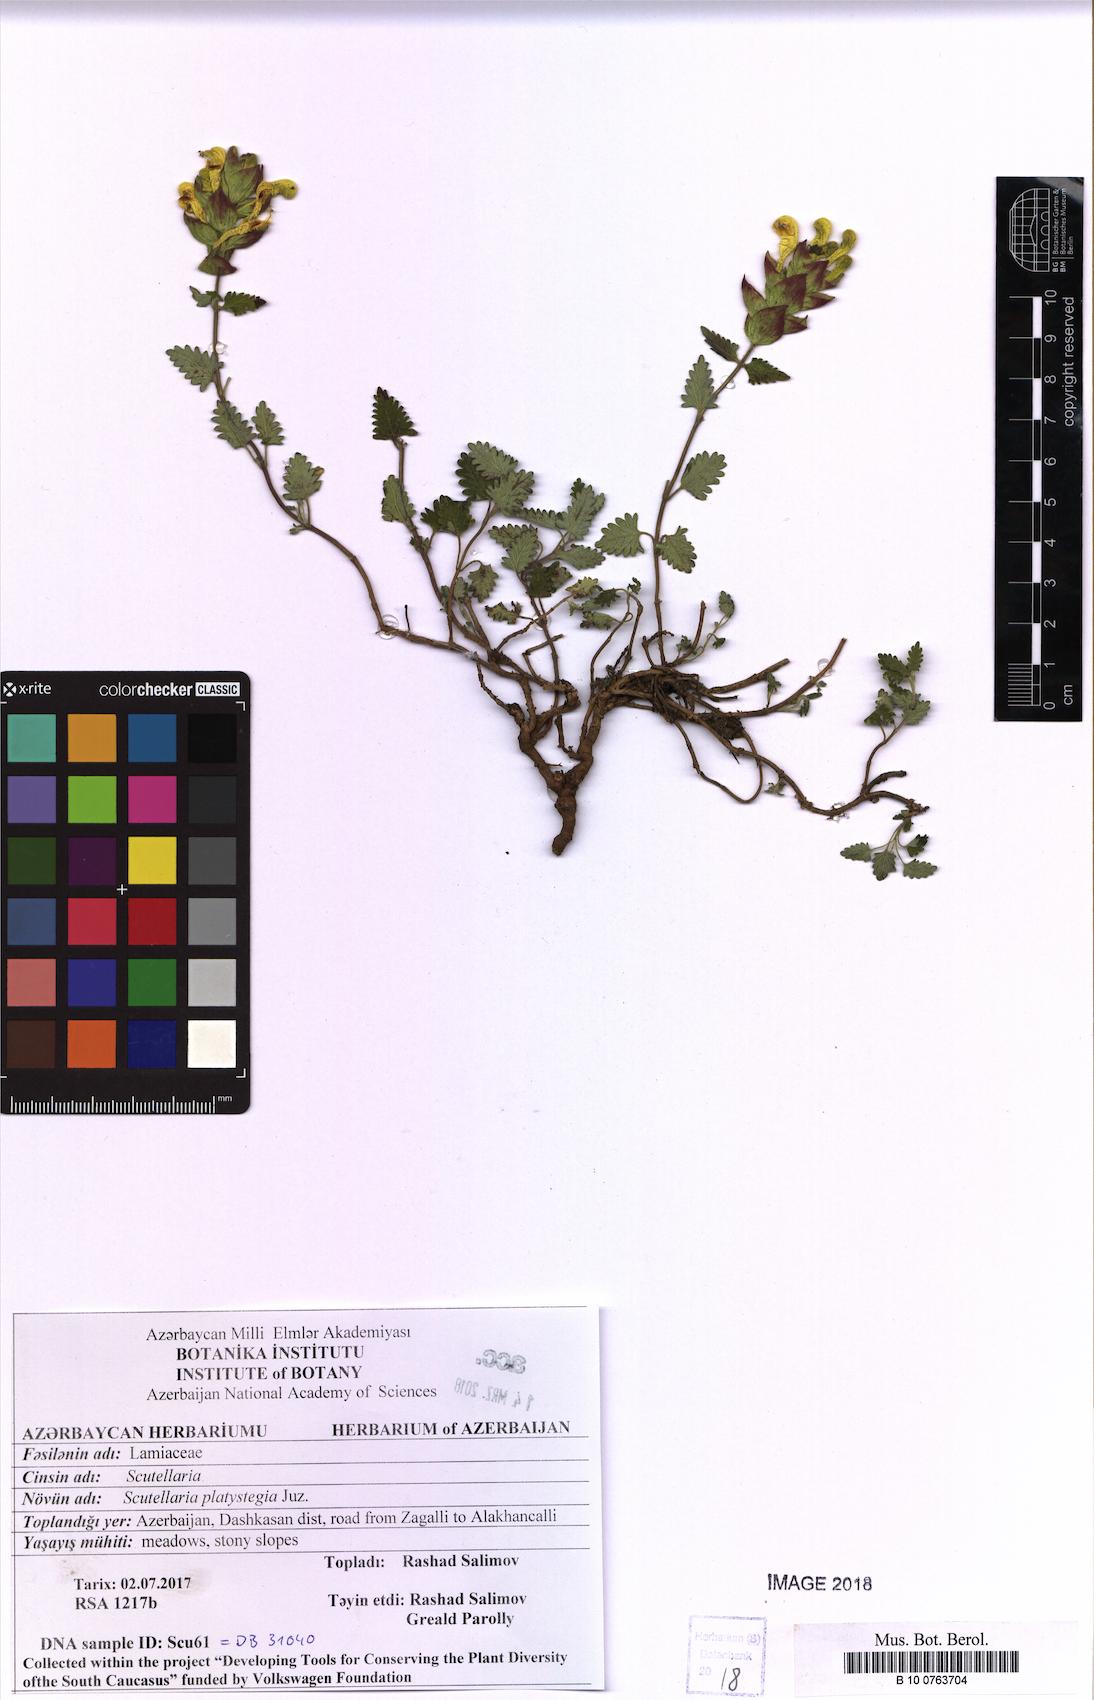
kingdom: Plantae
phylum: Tracheophyta
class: Magnoliopsida
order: Lamiales
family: Lamiaceae
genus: Scutellaria
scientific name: Scutellaria platystegia
